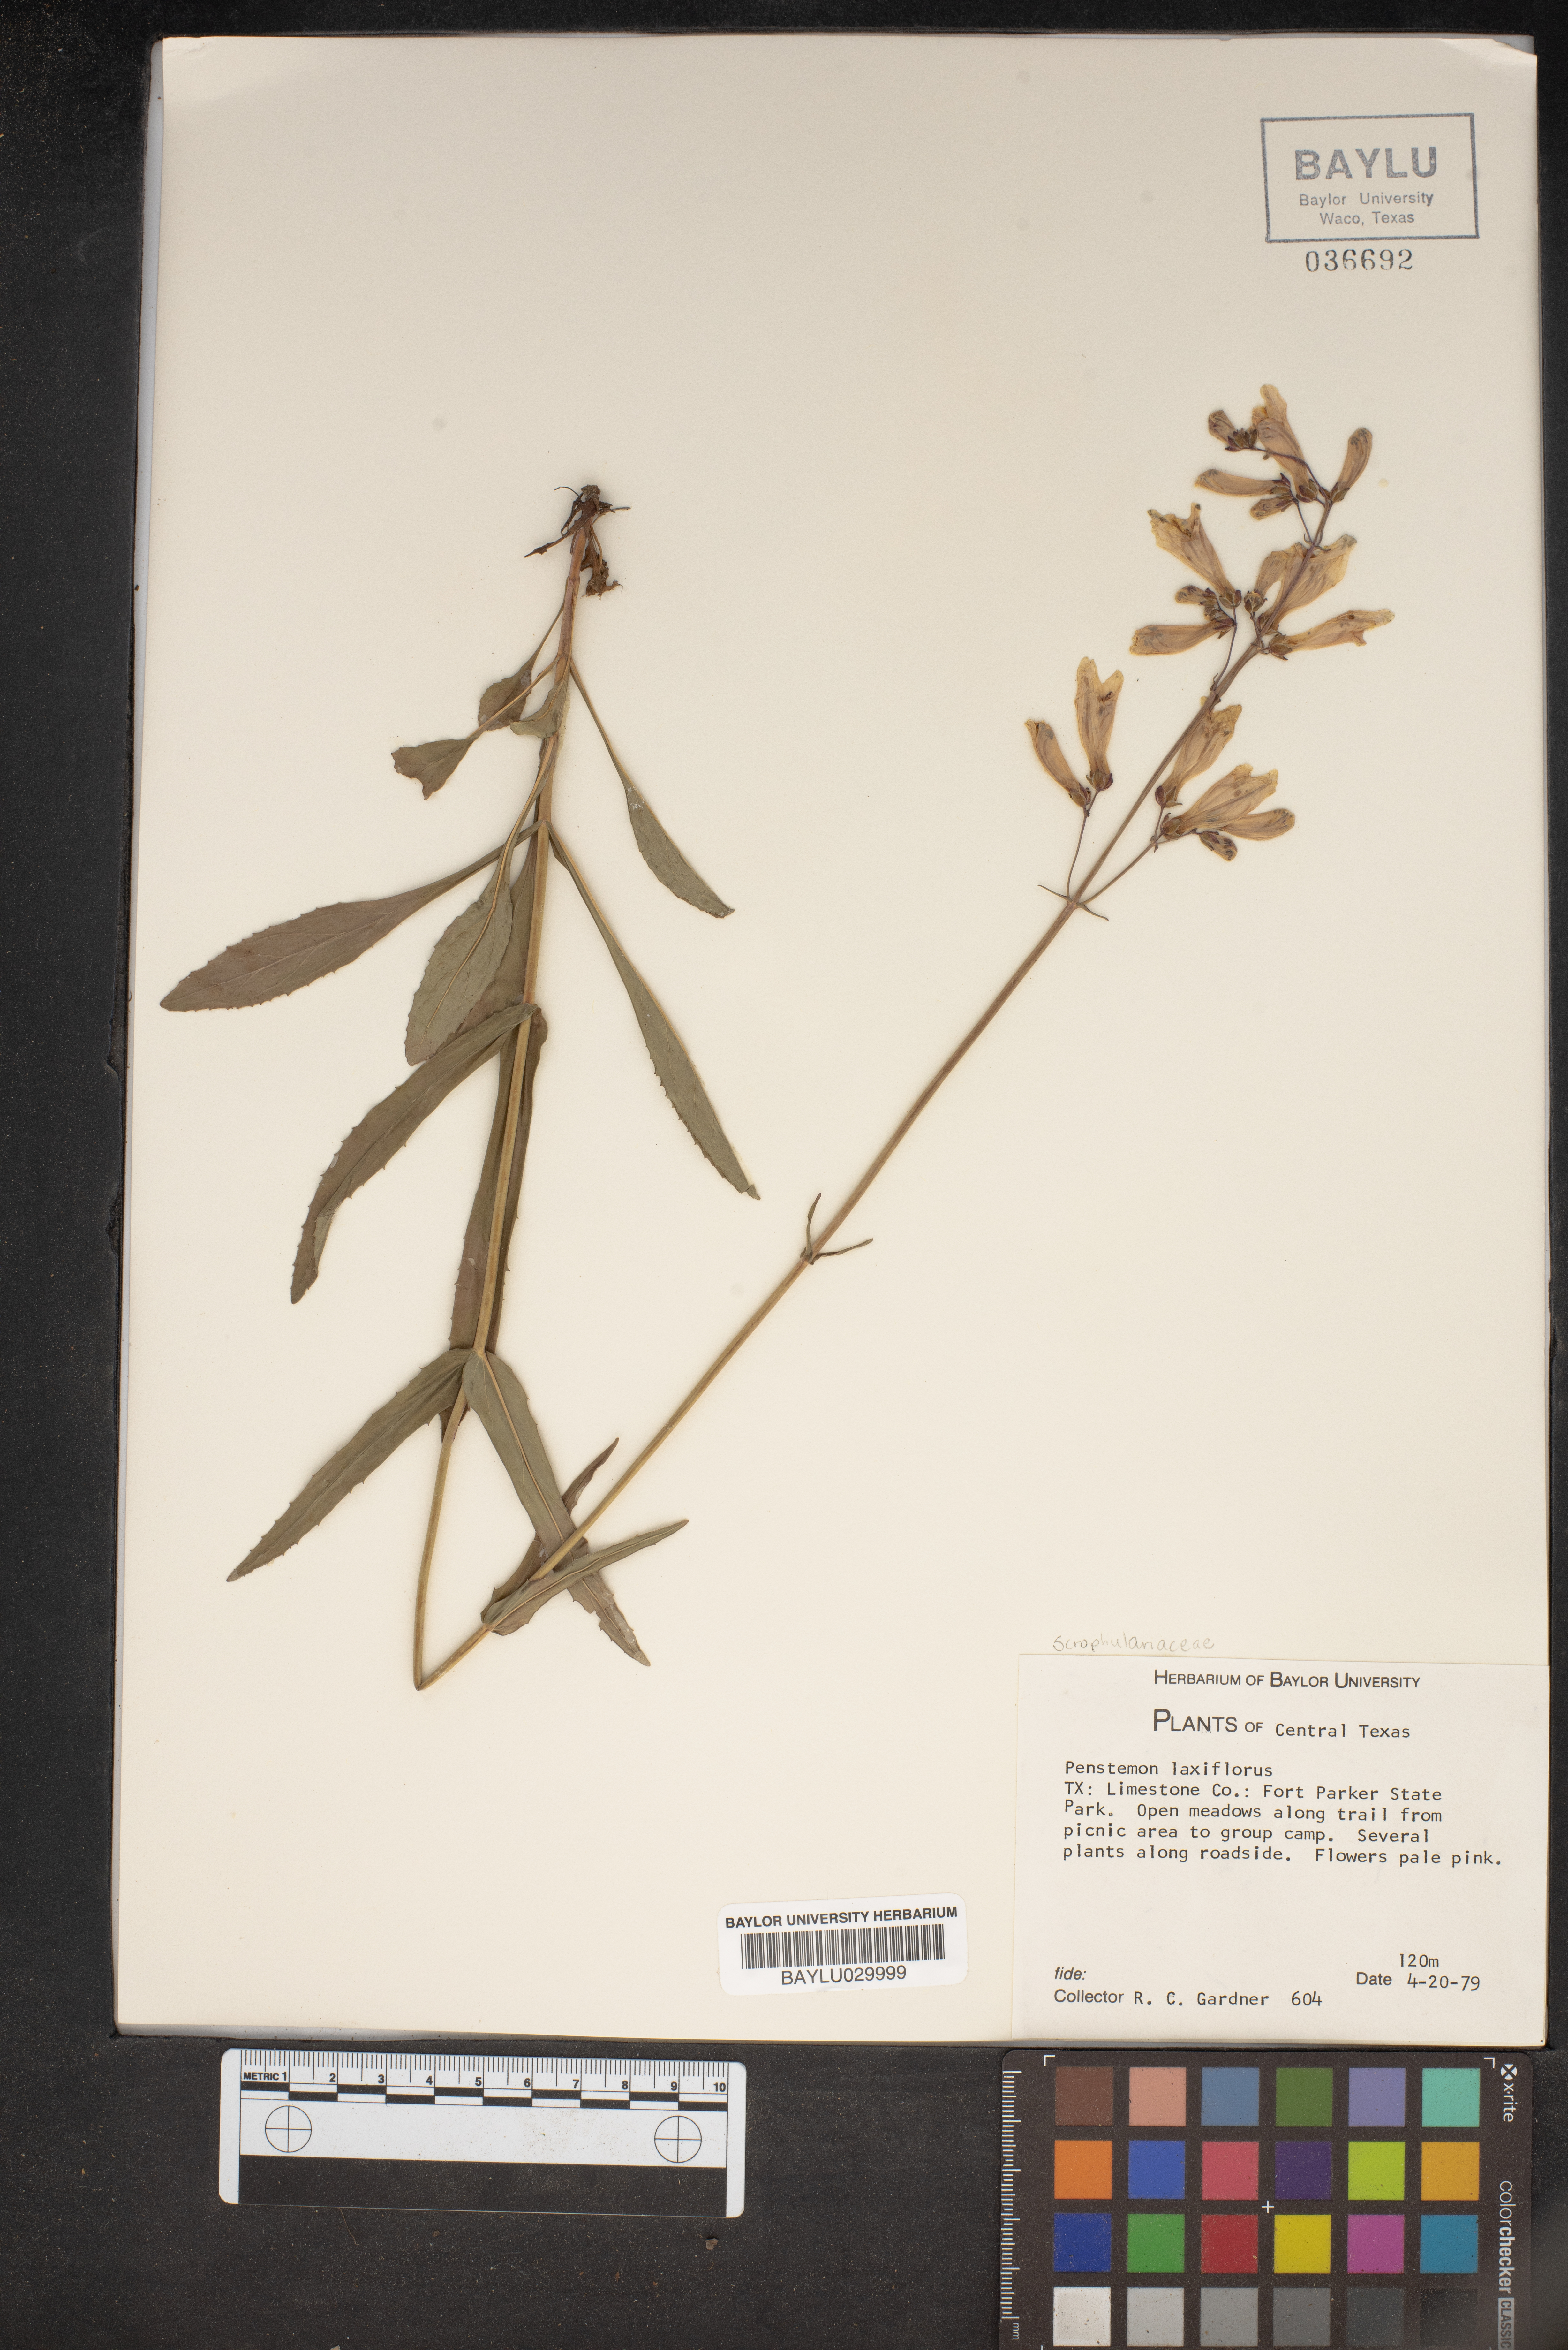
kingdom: Plantae
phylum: Tracheophyta
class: Magnoliopsida
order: Lamiales
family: Plantaginaceae
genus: Penstemon
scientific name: Penstemon laxiflorus
